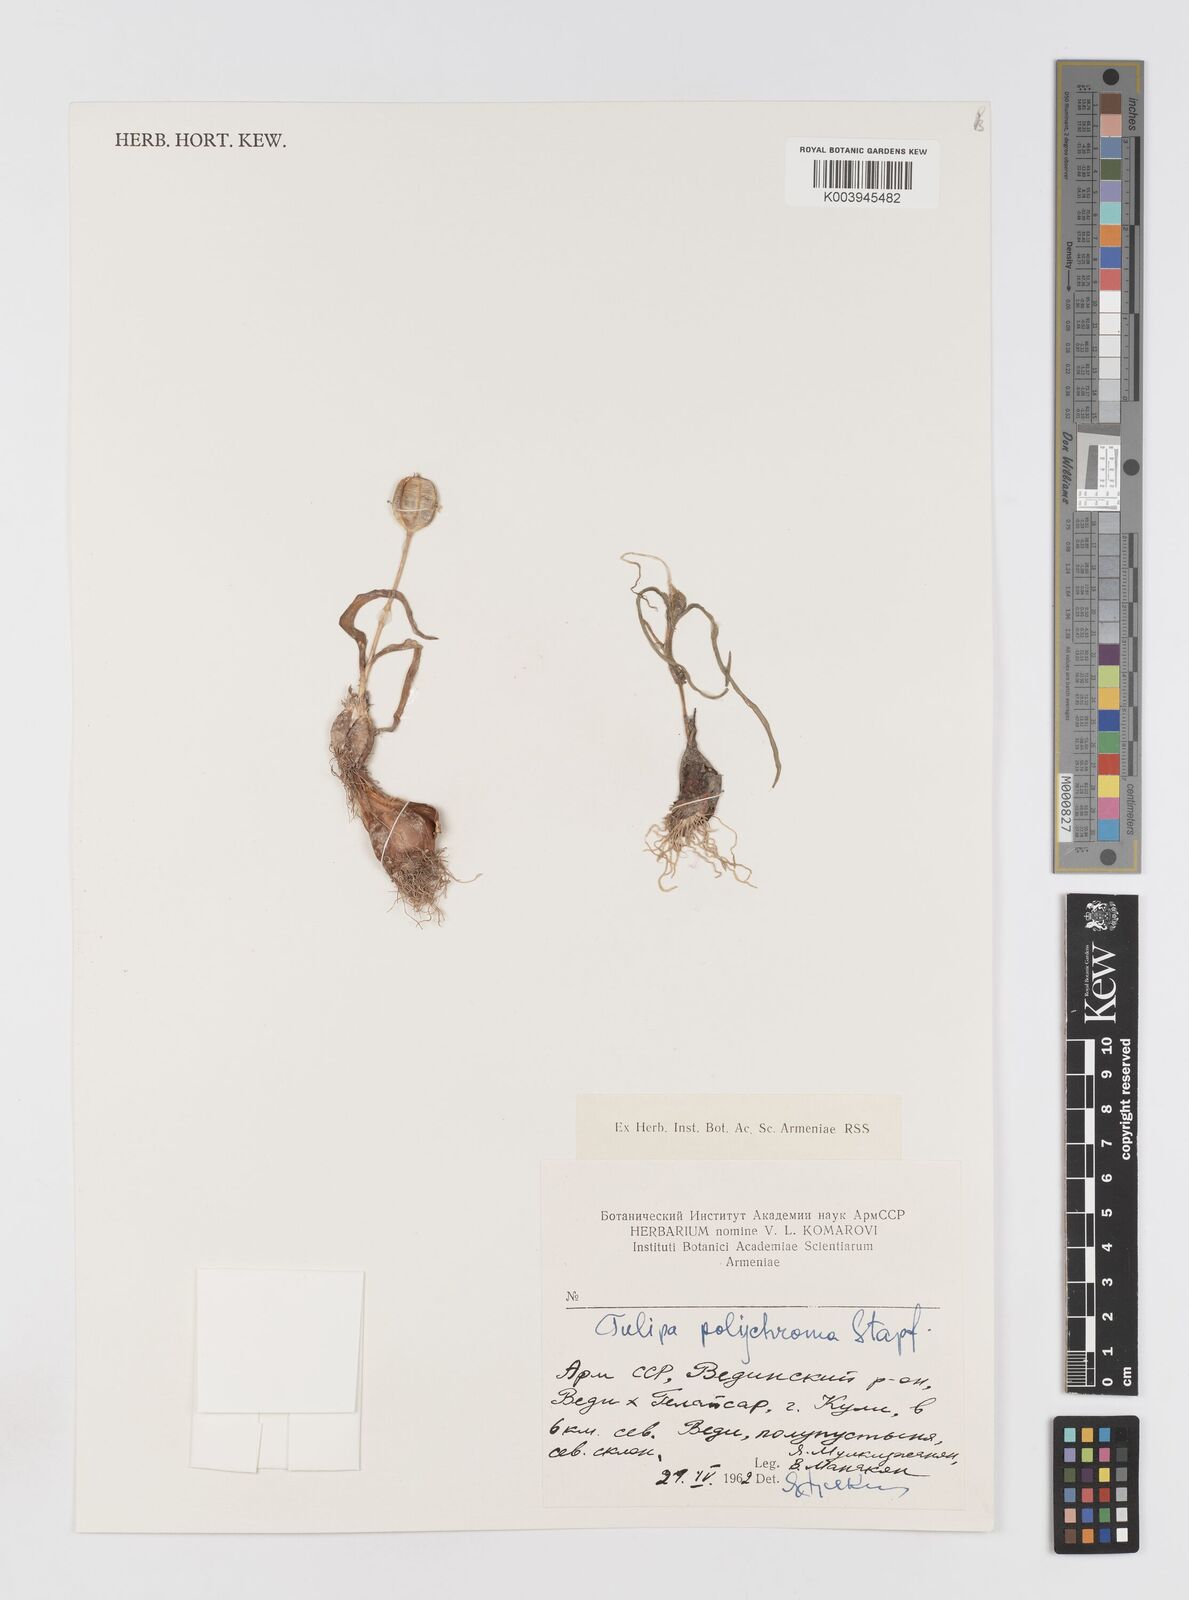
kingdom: Plantae
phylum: Tracheophyta
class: Liliopsida
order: Liliales
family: Liliaceae
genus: Tulipa
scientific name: Tulipa biflora
